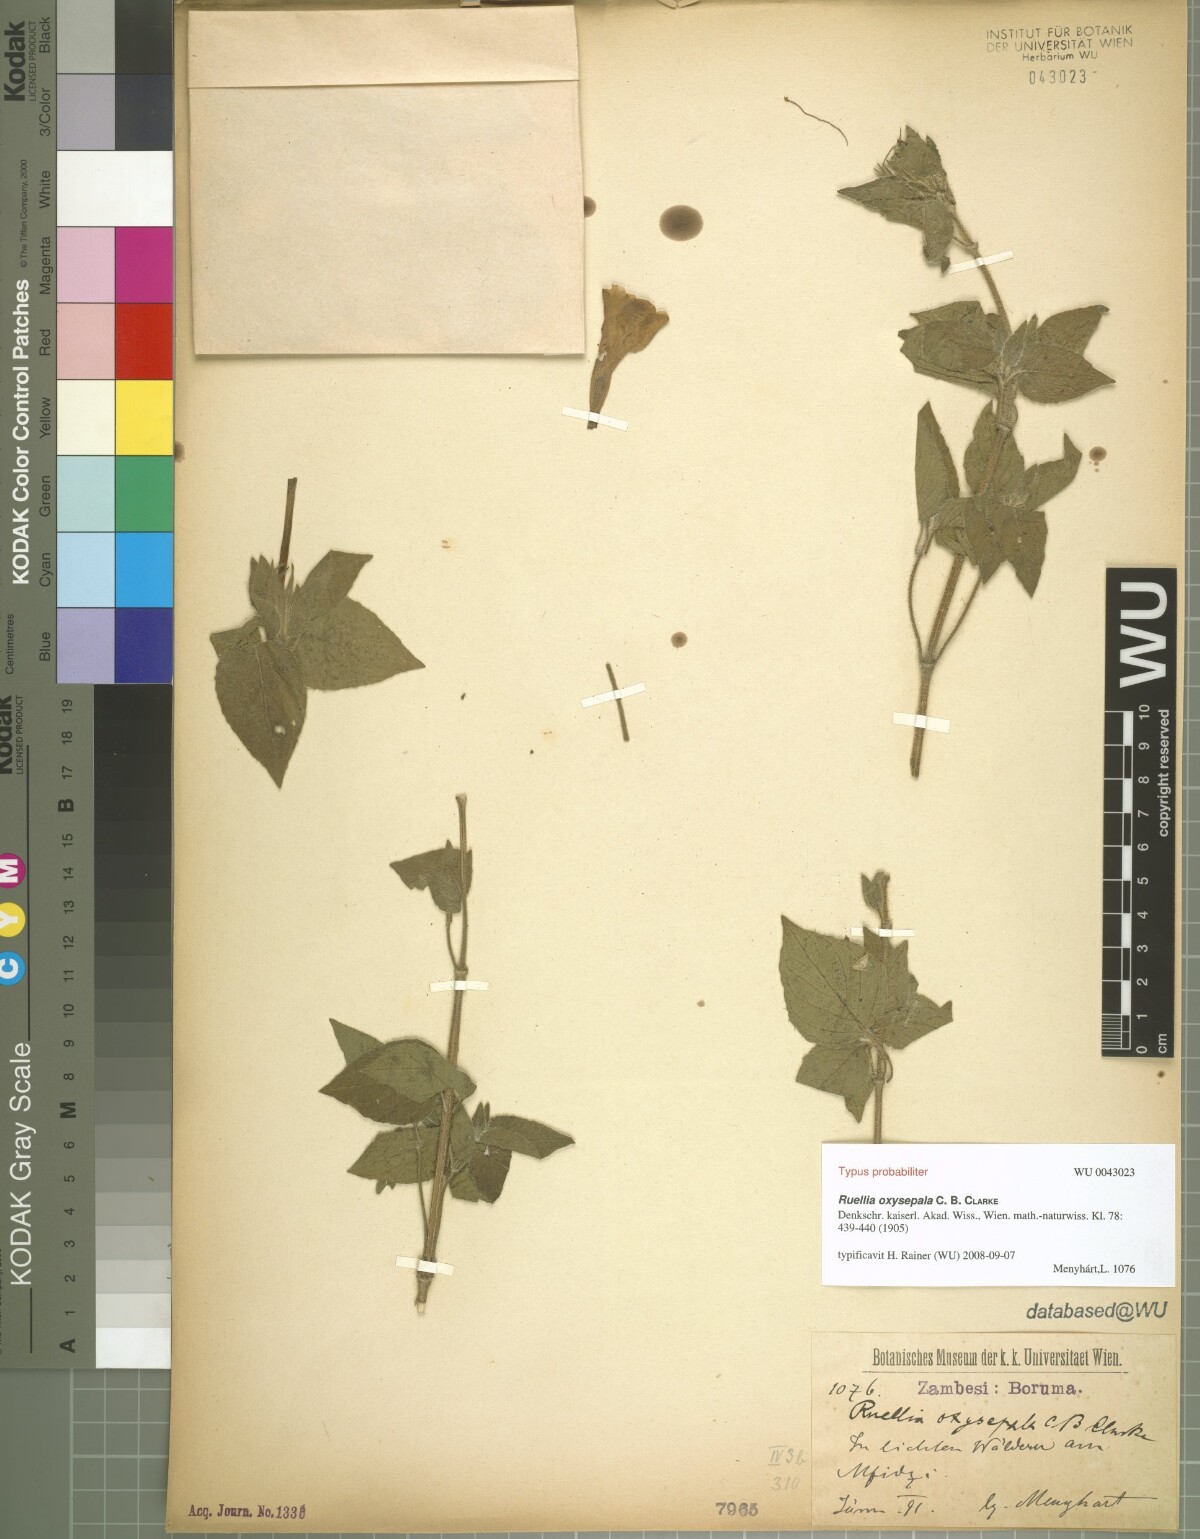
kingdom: Plantae
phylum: Tracheophyta
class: Magnoliopsida
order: Lamiales
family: Acanthaceae
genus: Ruellia
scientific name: Ruellia oxysepala
